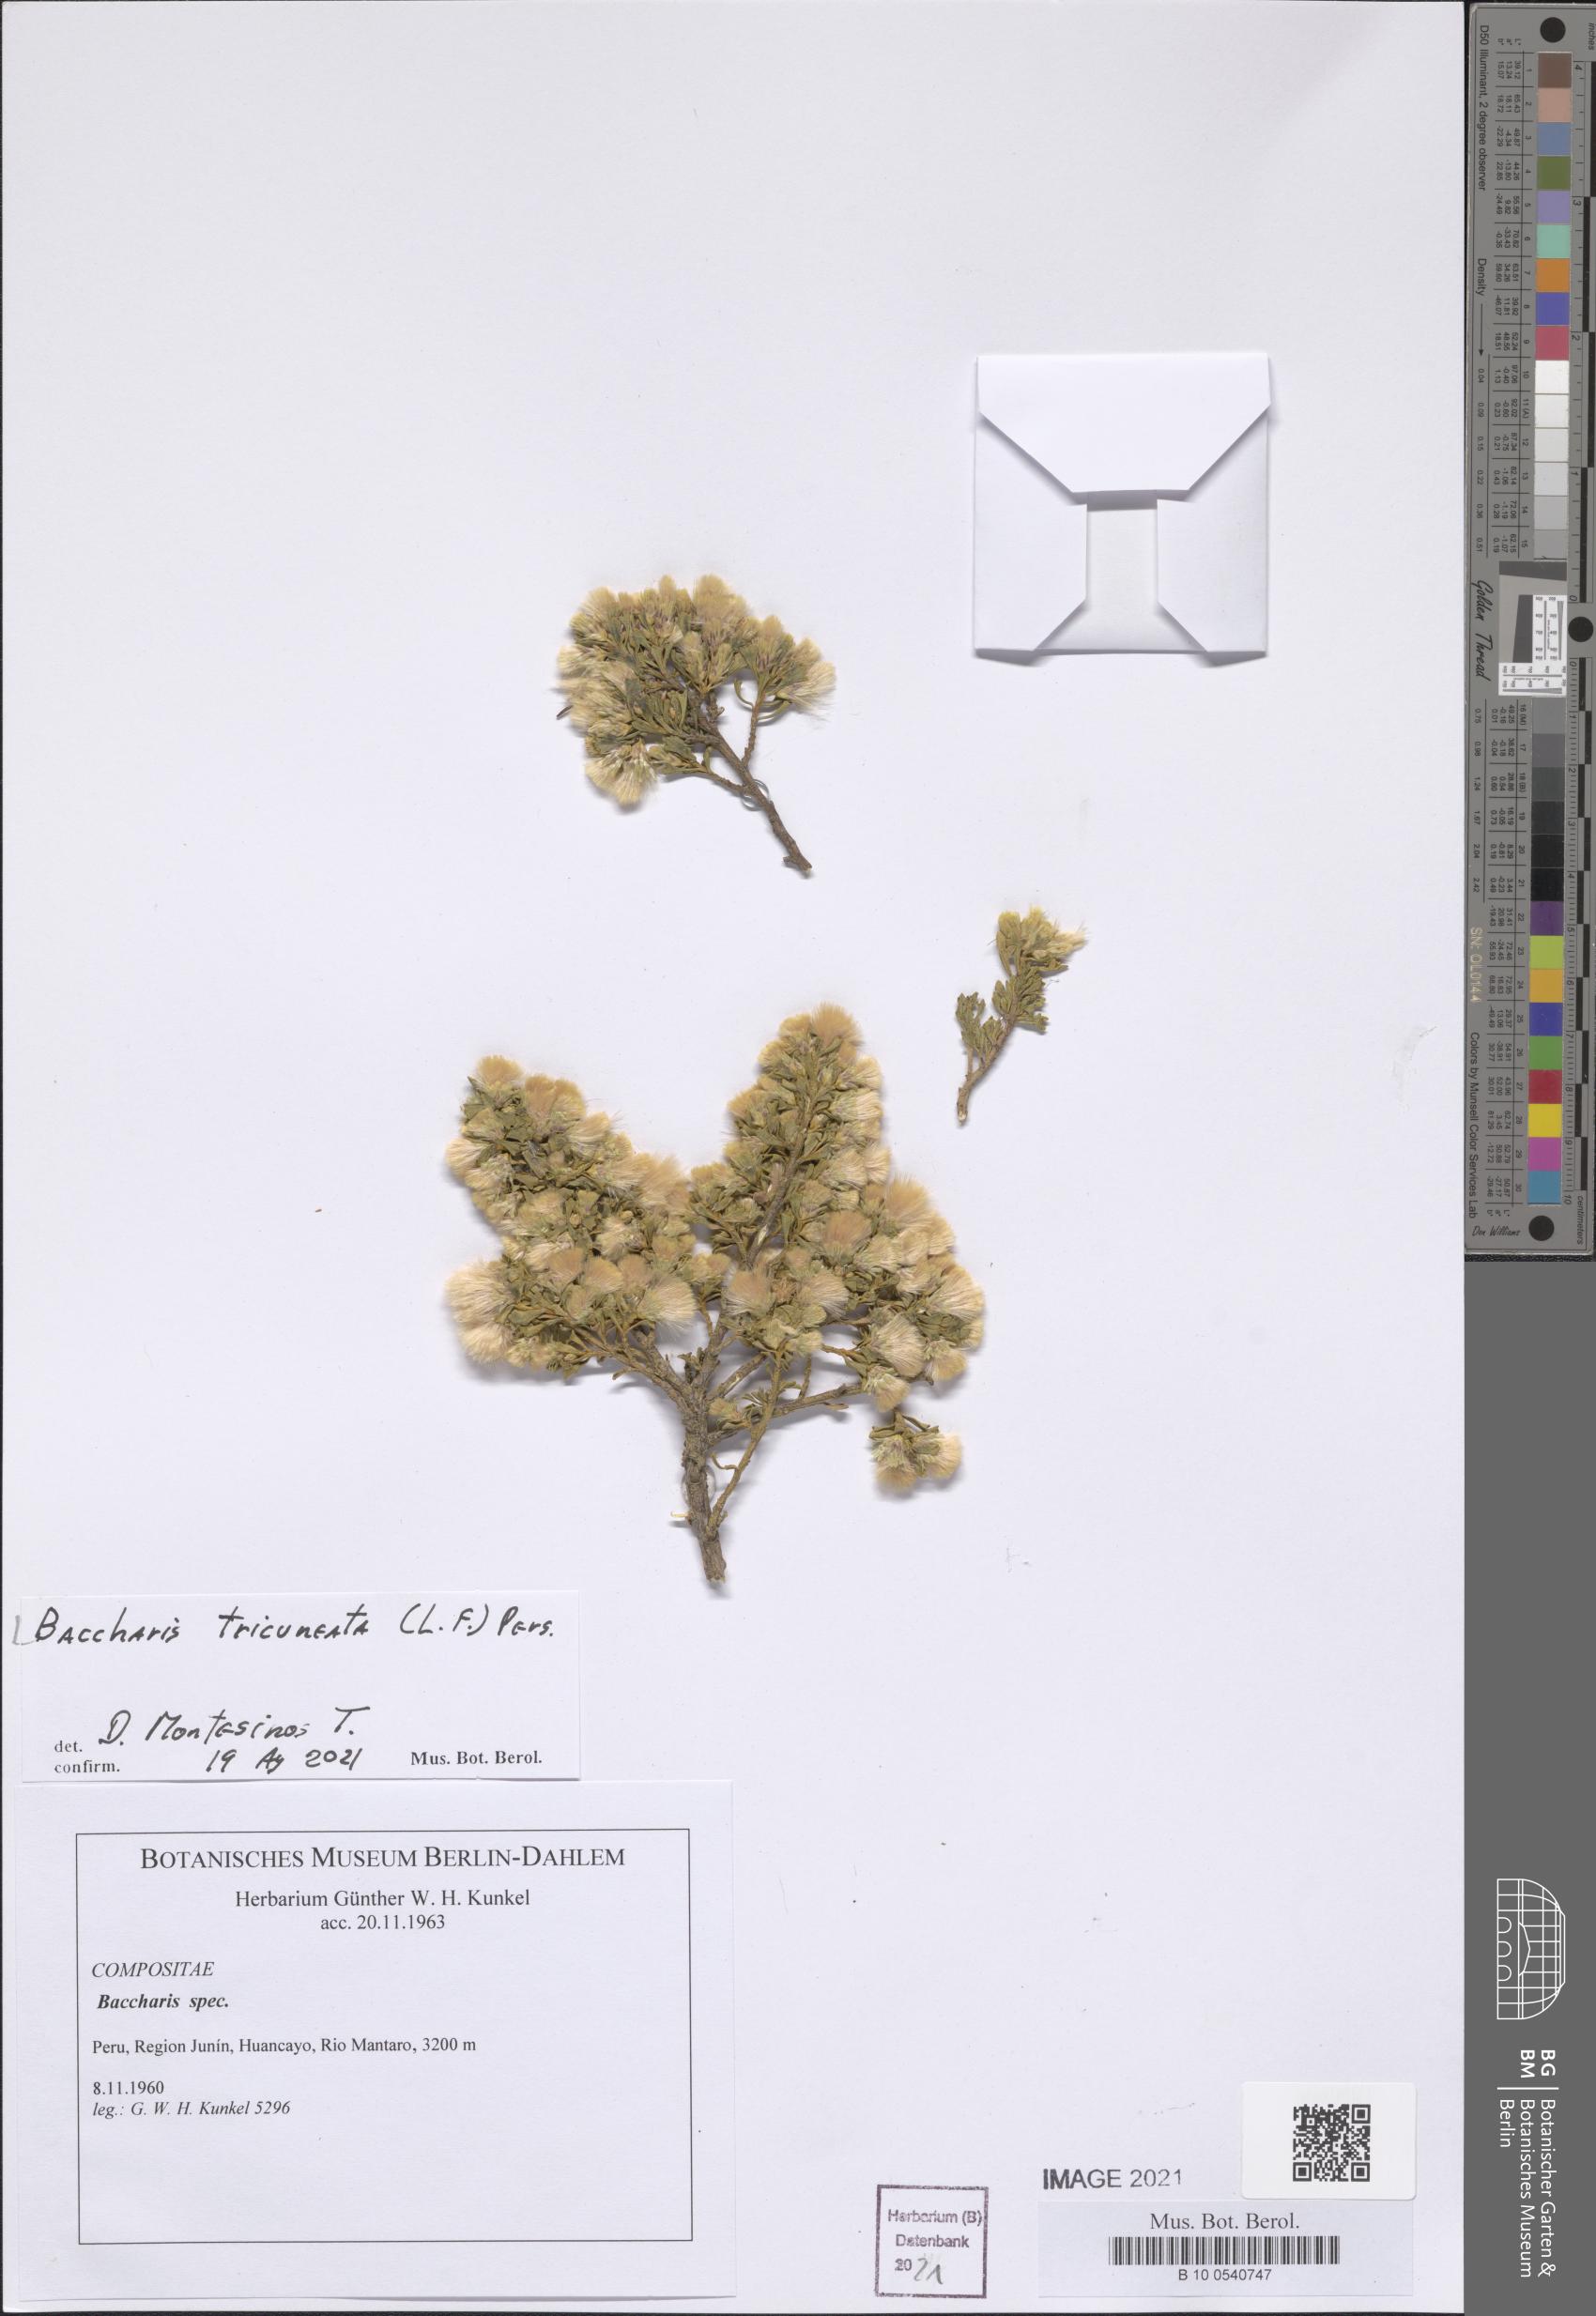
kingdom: Plantae
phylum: Tracheophyta
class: Magnoliopsida
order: Asterales
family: Asteraceae
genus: Baccharis
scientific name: Baccharis tricuneata
